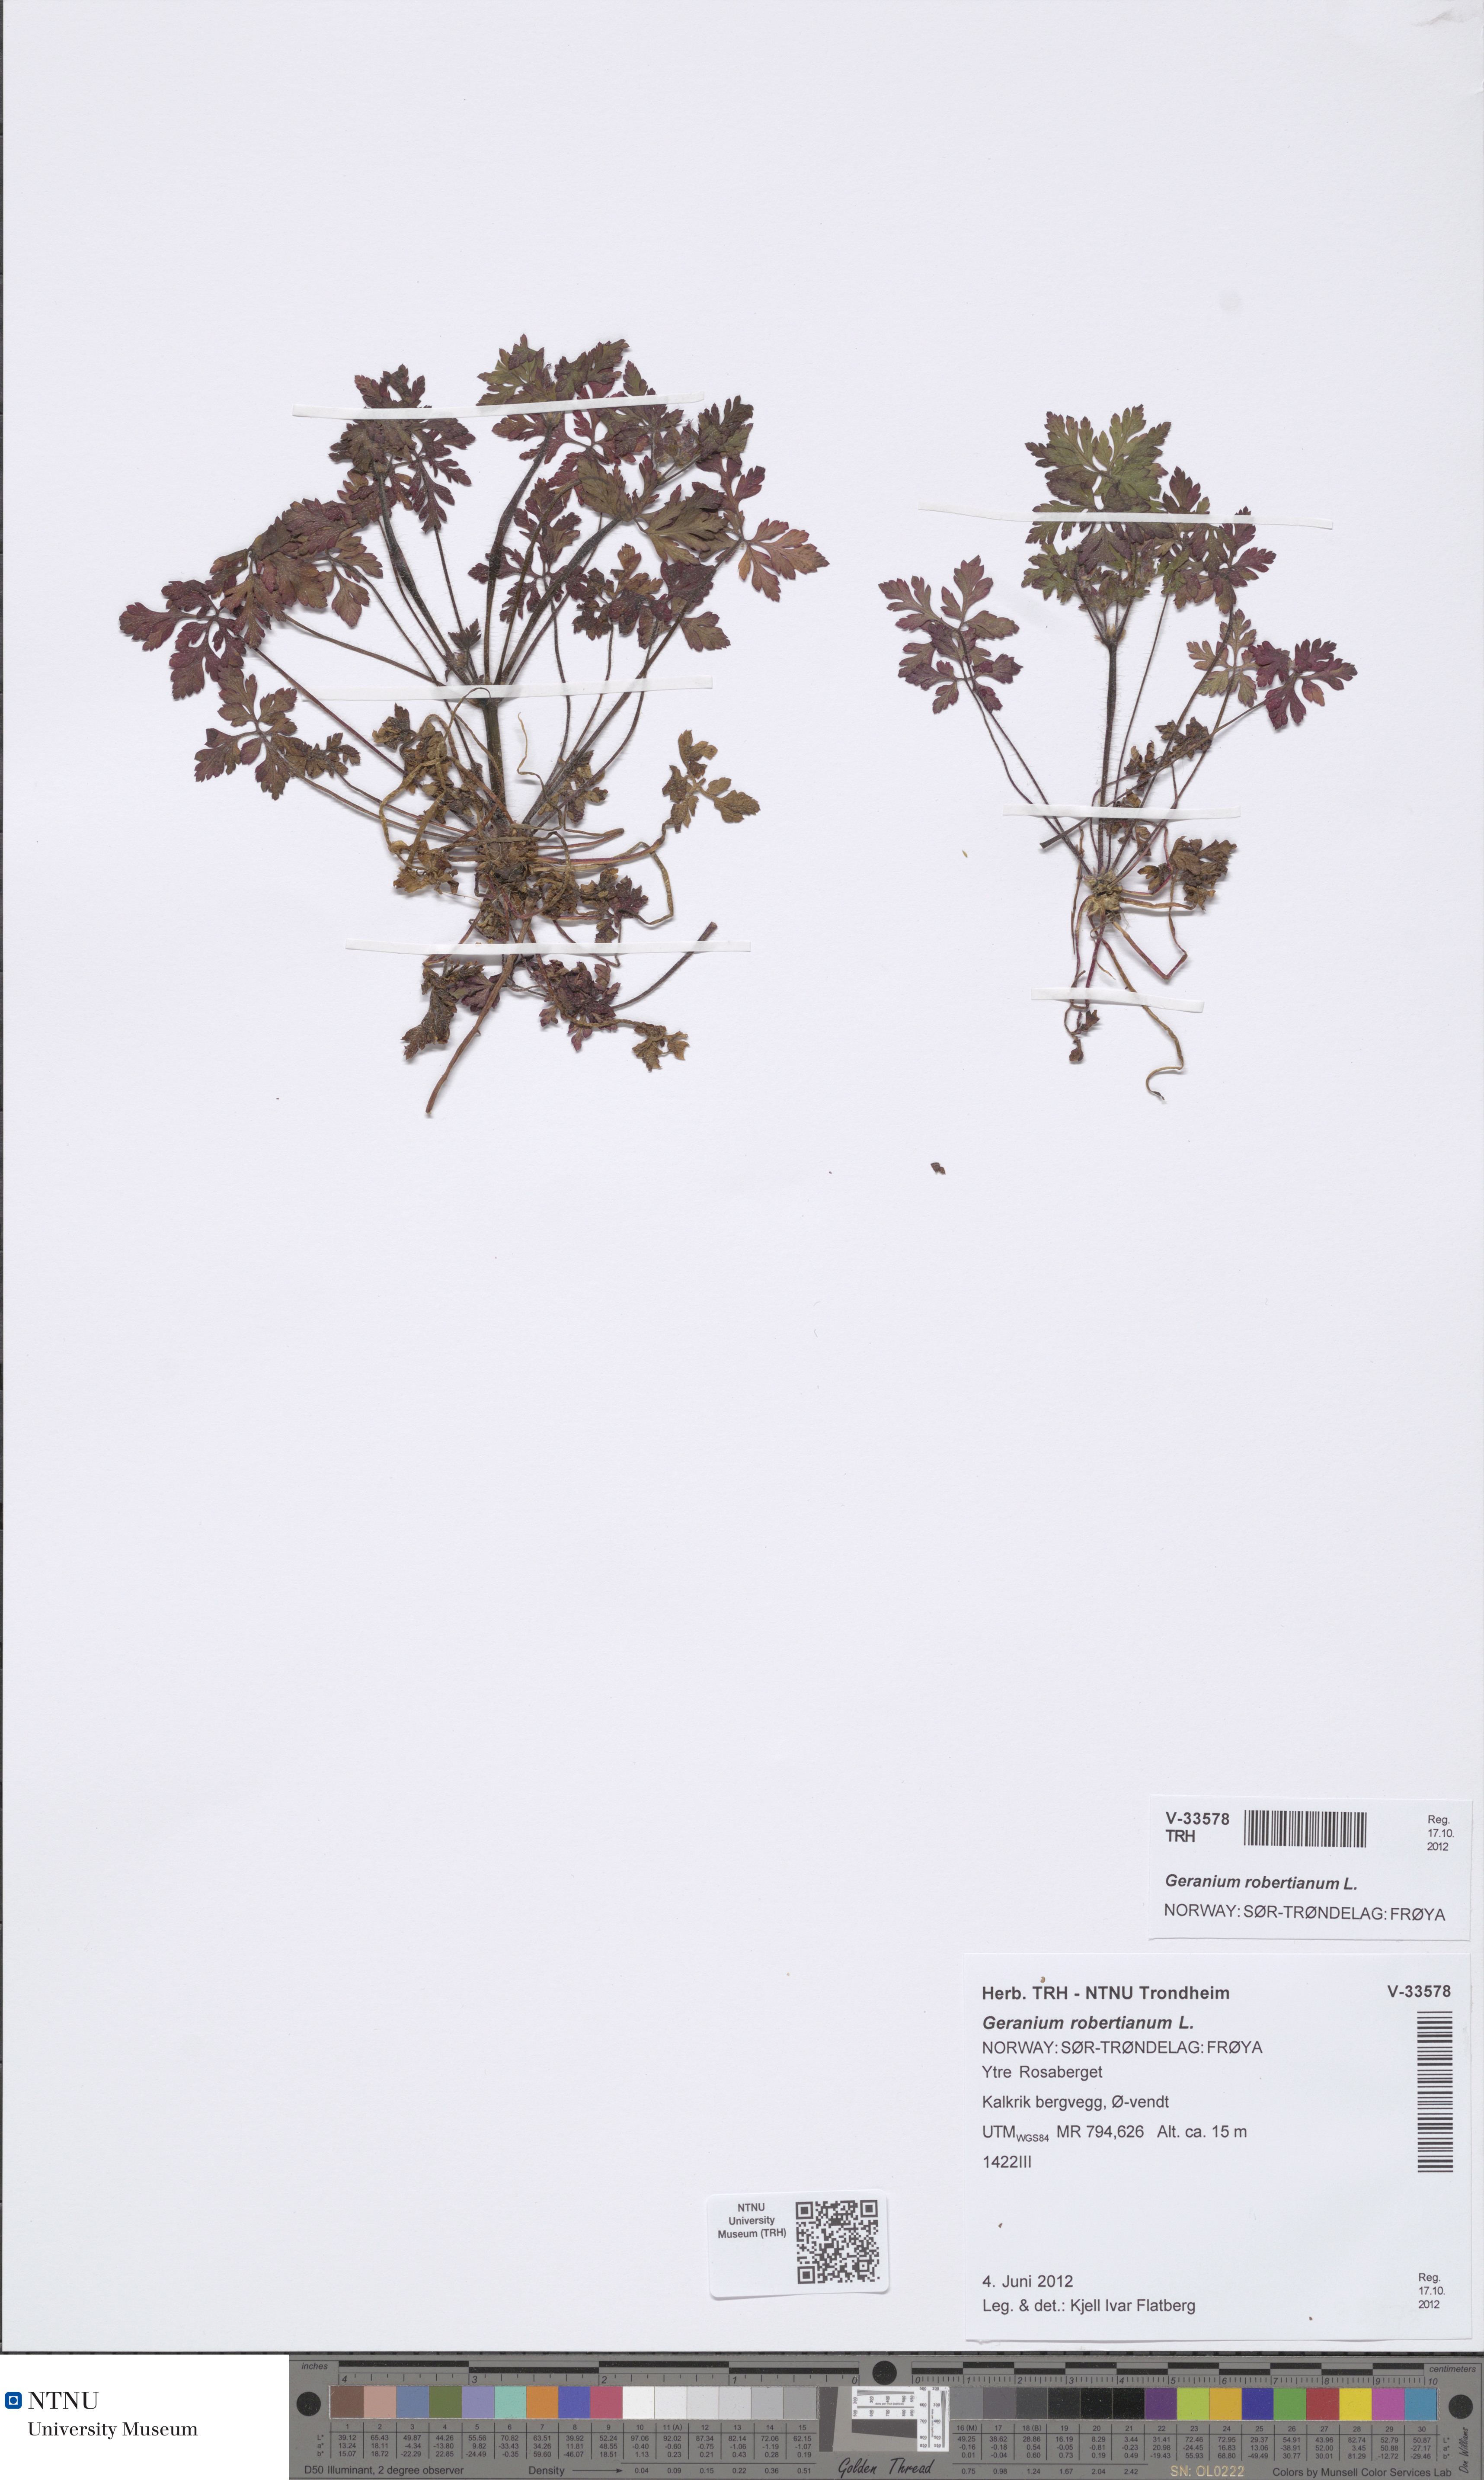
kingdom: Plantae
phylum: Tracheophyta
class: Magnoliopsida
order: Geraniales
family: Geraniaceae
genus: Geranium
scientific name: Geranium robertianum
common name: Herb-robert
